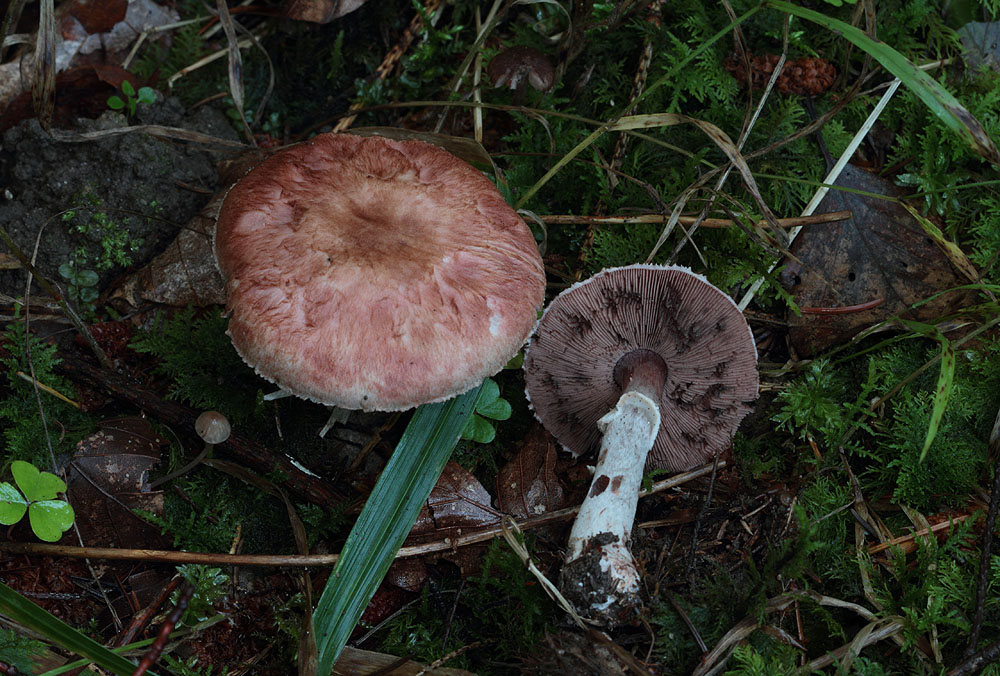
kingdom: Fungi
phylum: Basidiomycota
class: Agaricomycetes
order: Agaricales
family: Agaricaceae
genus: Agaricus
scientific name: Agaricus langei
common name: stor blod-champignon
